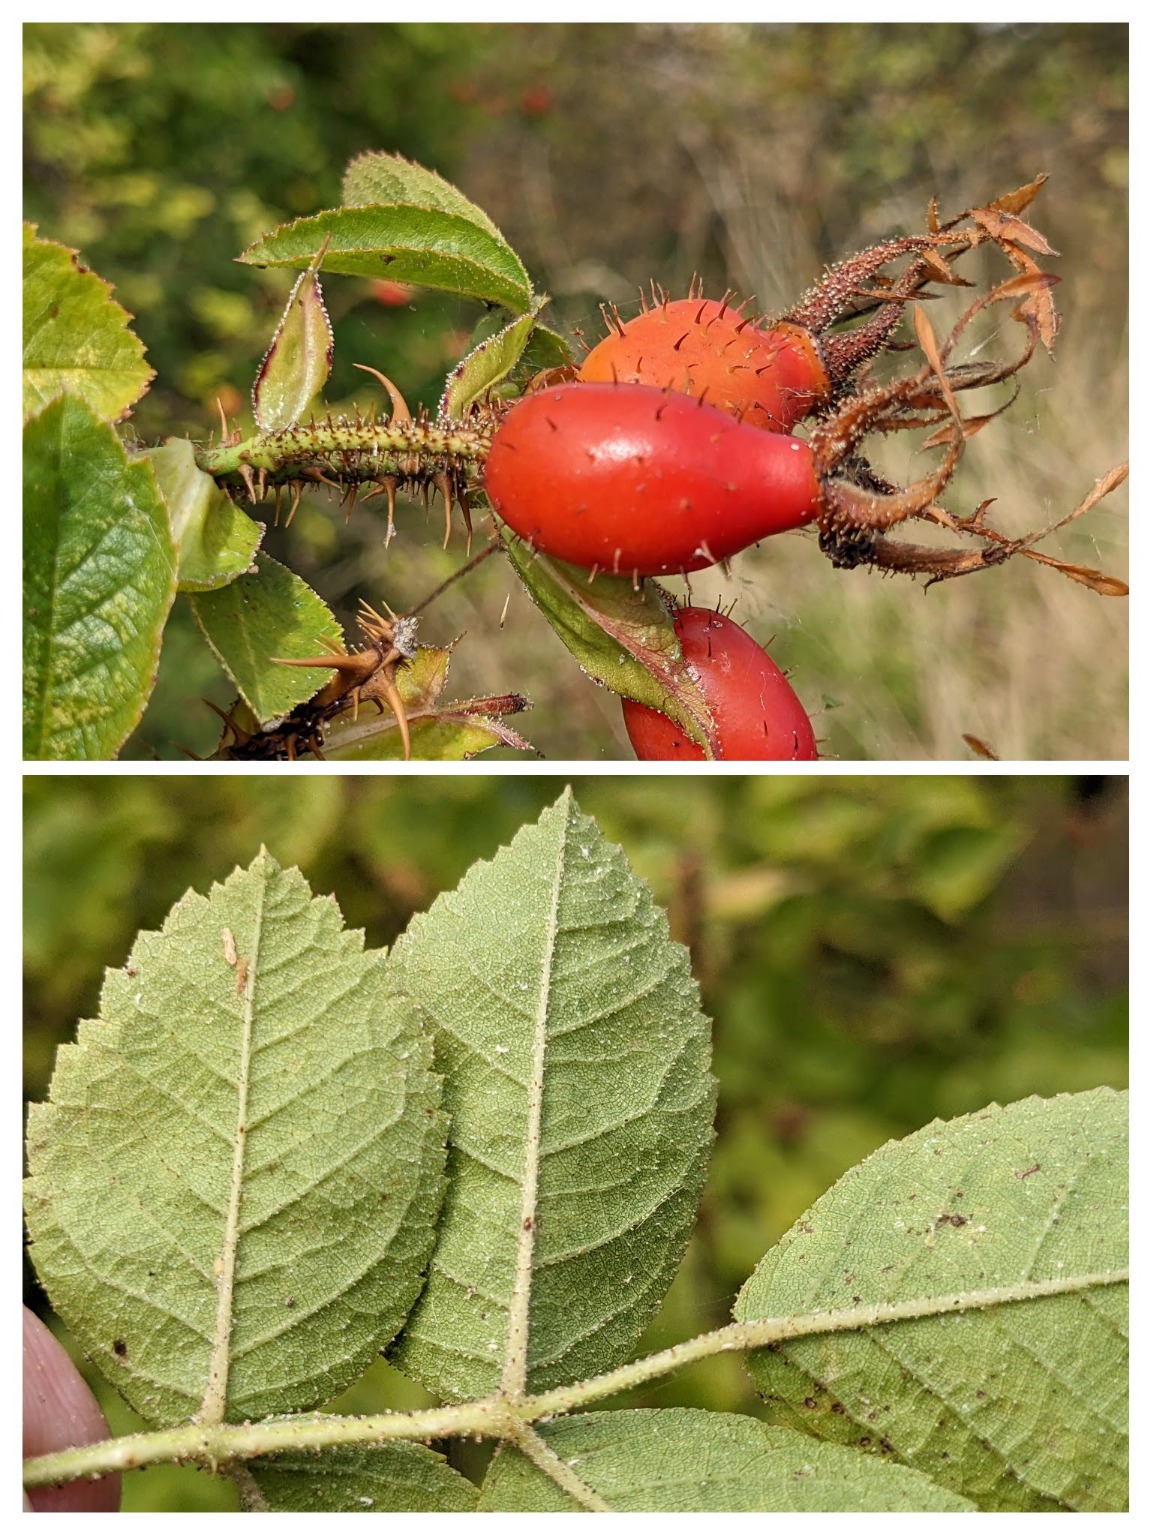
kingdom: Plantae
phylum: Tracheophyta
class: Magnoliopsida
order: Rosales
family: Rosaceae
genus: Rosa
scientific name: Rosa rubiginosa
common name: Æble-rose
